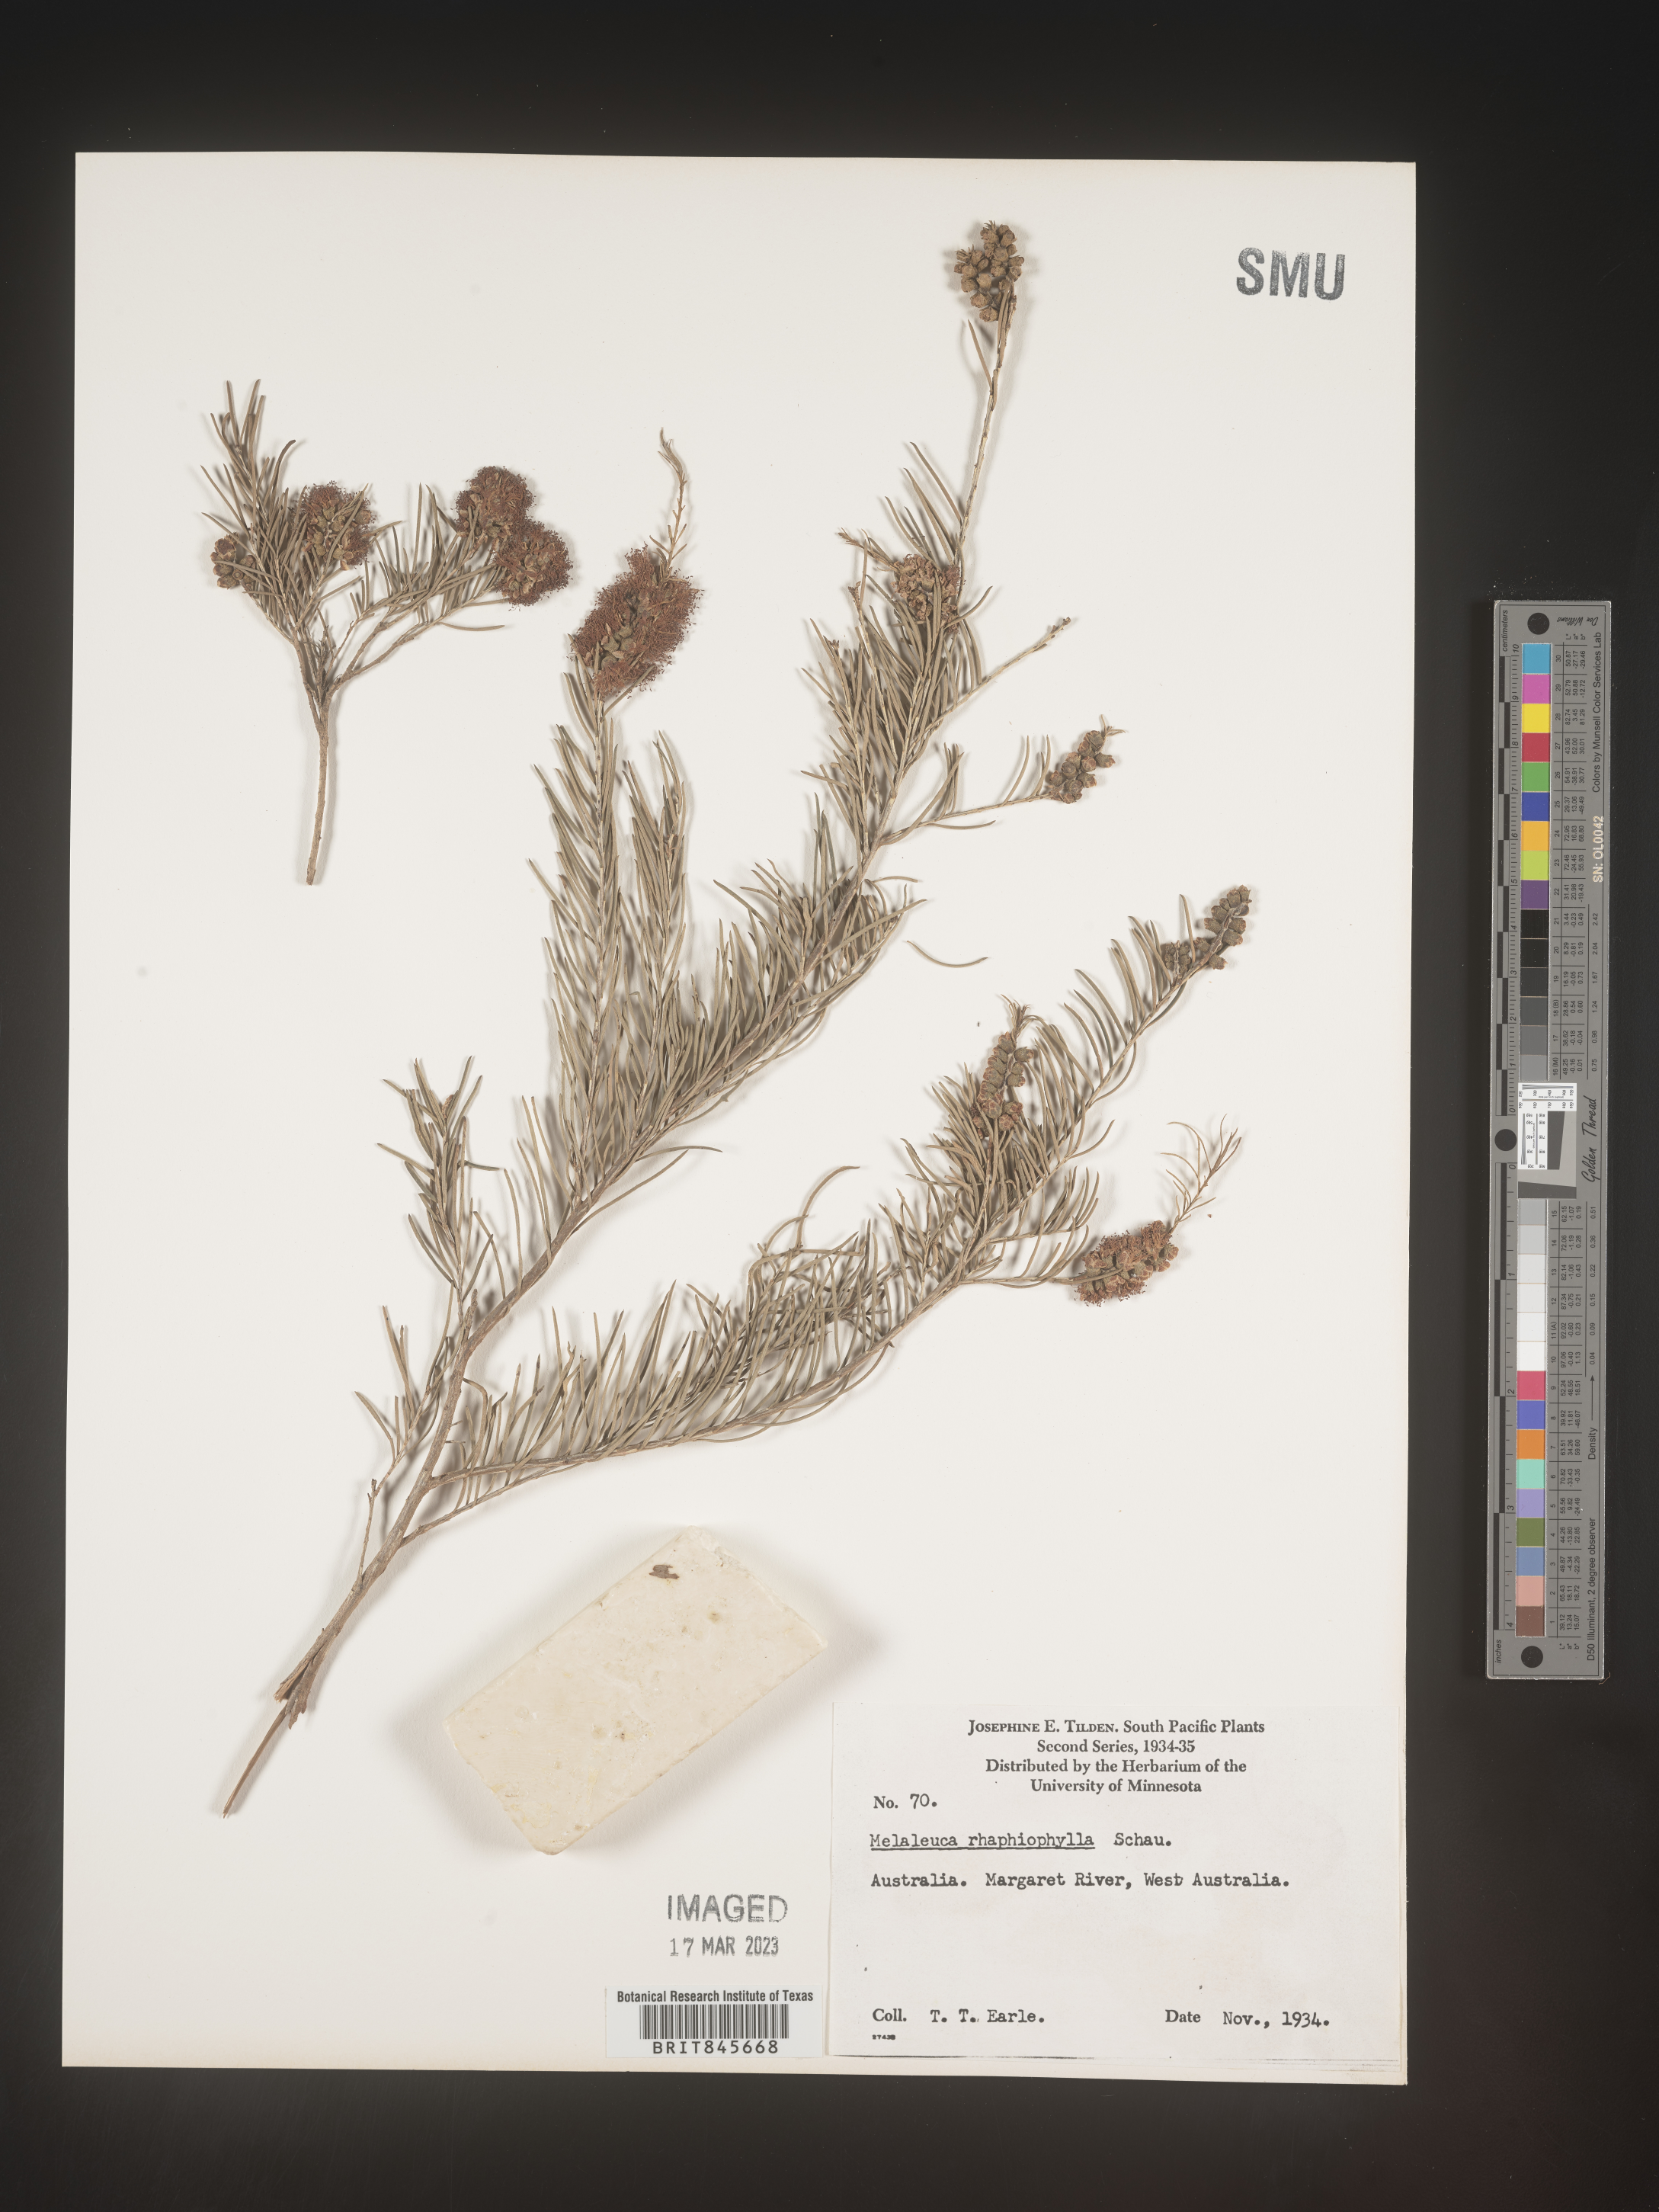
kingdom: Plantae
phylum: Tracheophyta
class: Magnoliopsida
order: Myrtales
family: Myrtaceae
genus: Melaleuca
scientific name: Melaleuca
